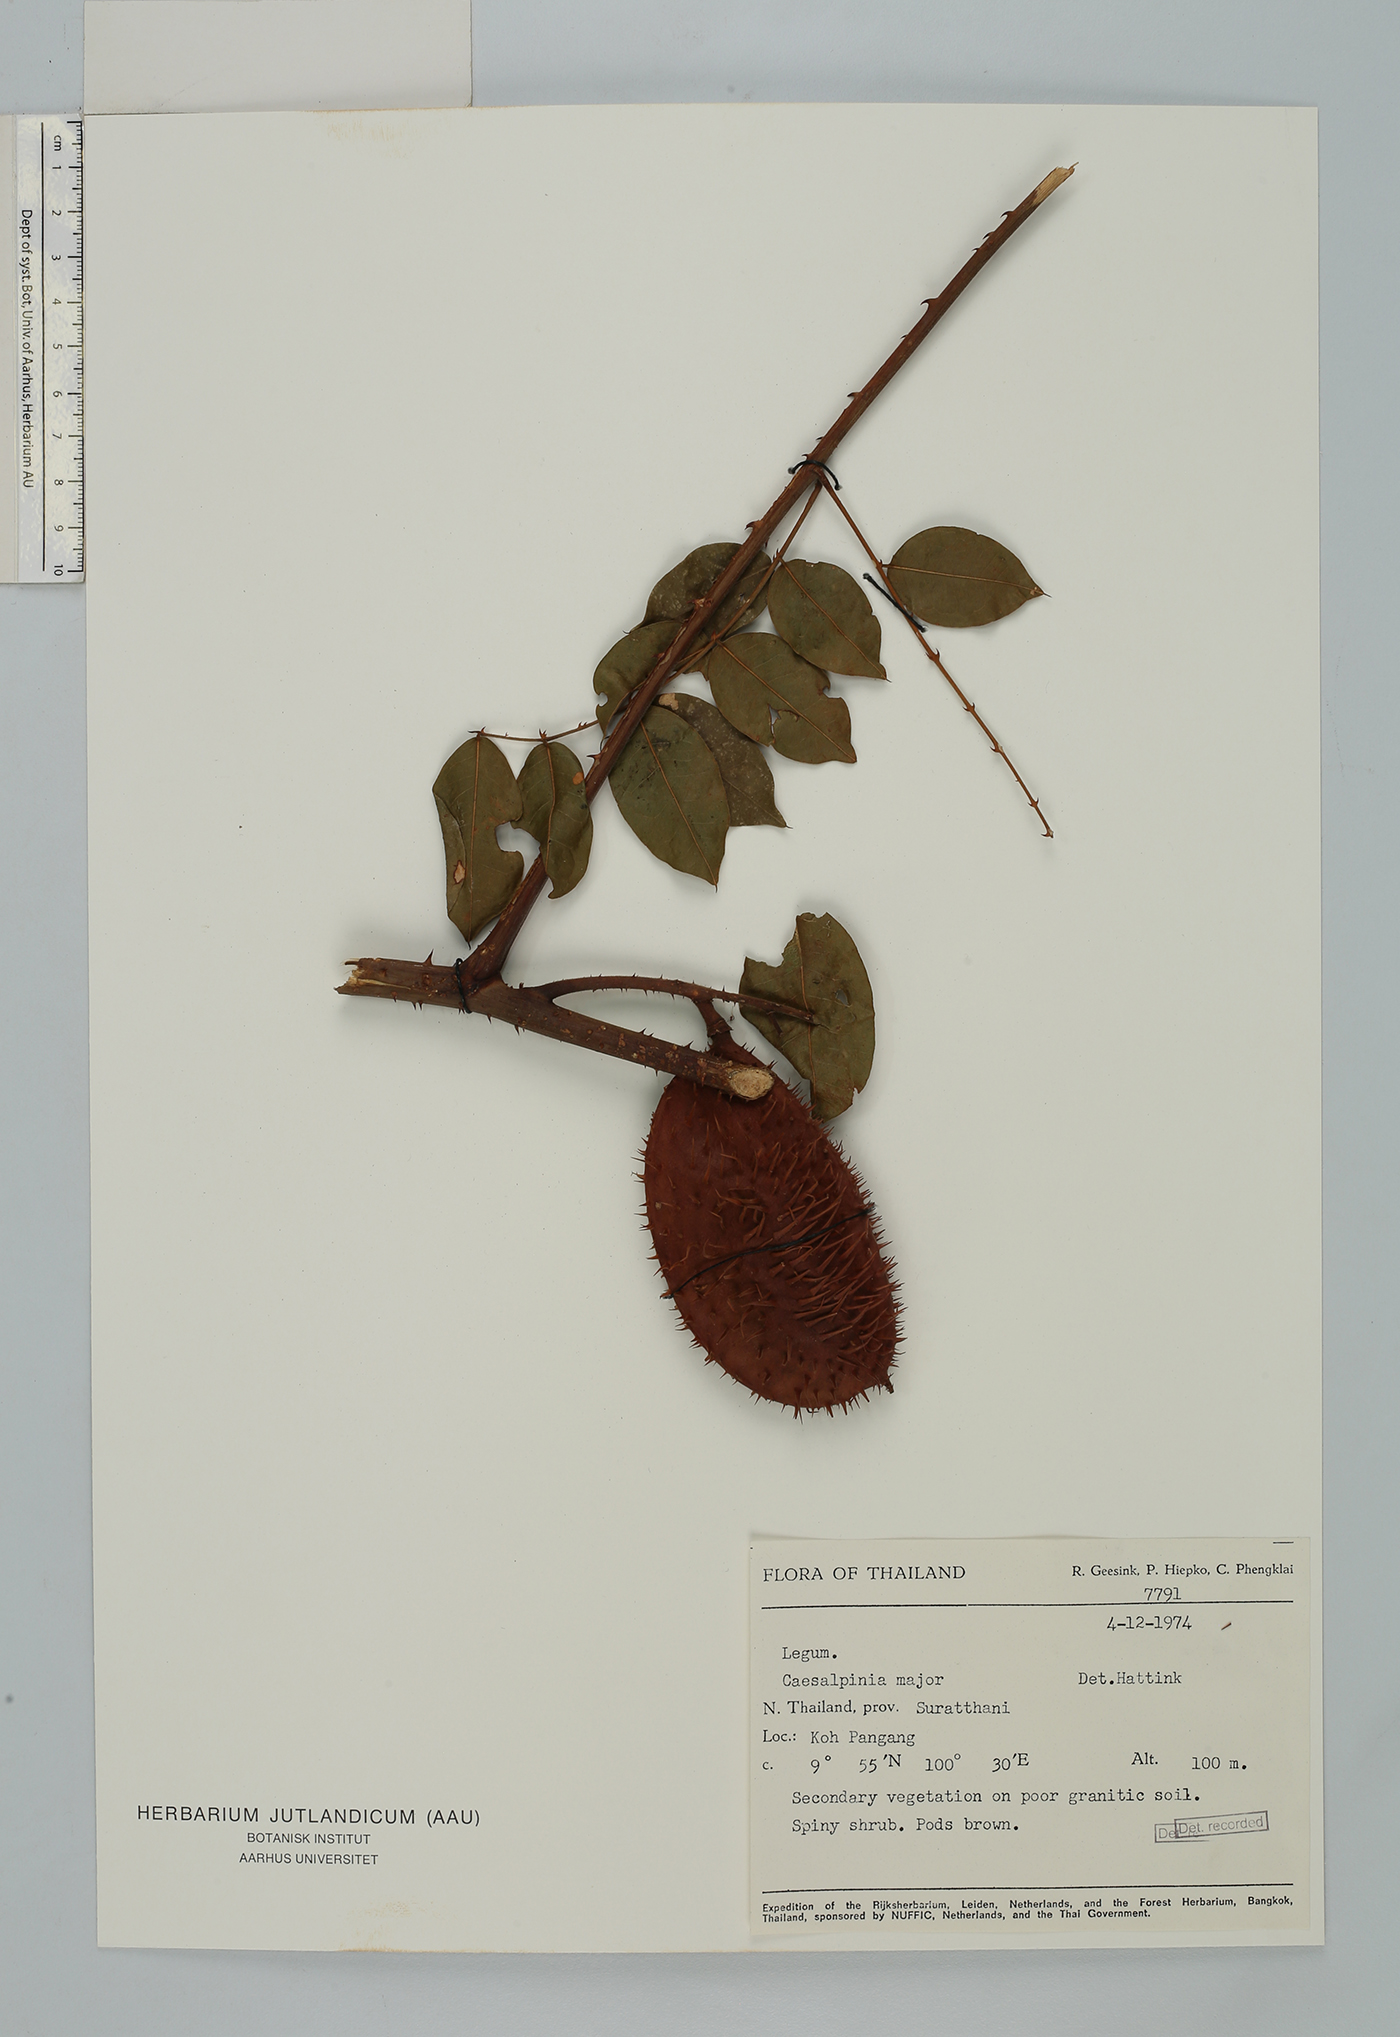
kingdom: Plantae
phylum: Tracheophyta
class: Magnoliopsida
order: Fabales
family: Fabaceae
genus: Guilandina
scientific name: Guilandina major
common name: Hawai'i pearls
